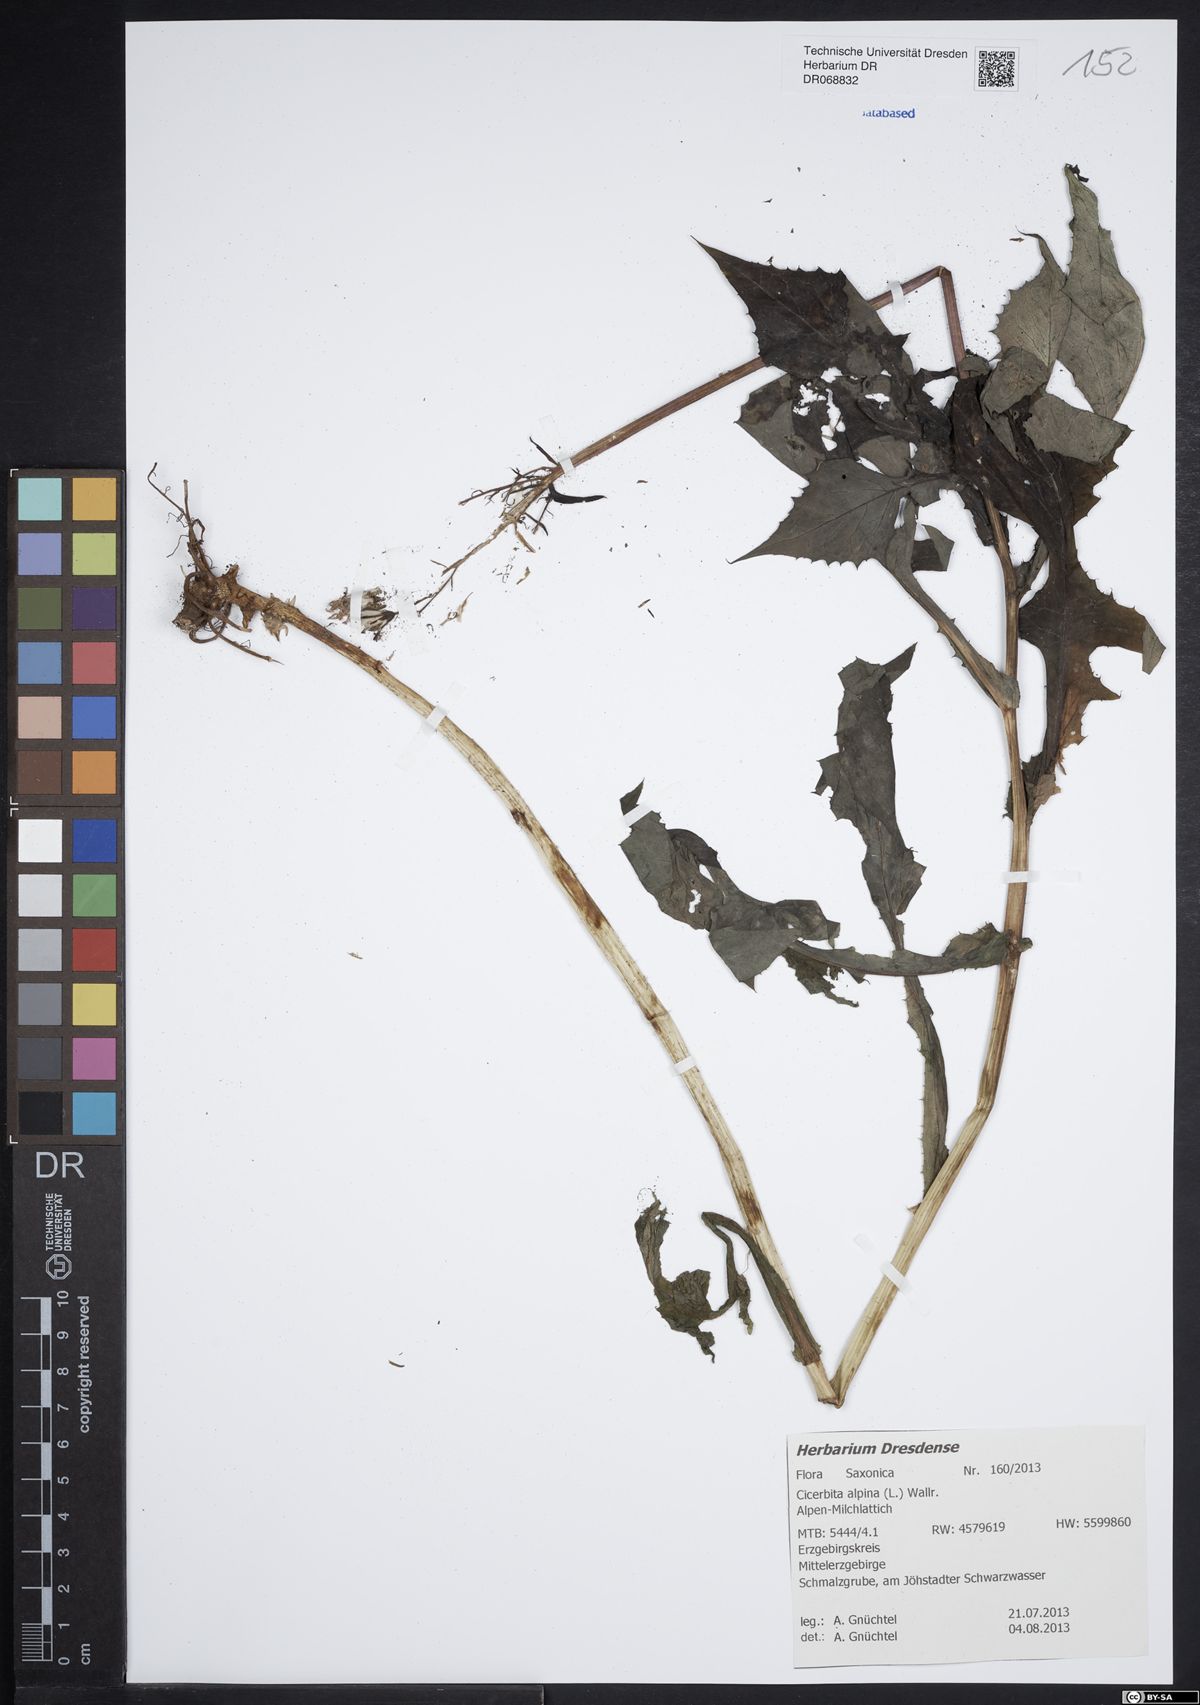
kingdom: Plantae
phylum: Tracheophyta
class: Magnoliopsida
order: Asterales
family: Asteraceae
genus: Cicerbita
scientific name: Cicerbita alpina
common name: Alpine blue-sow-thistle
